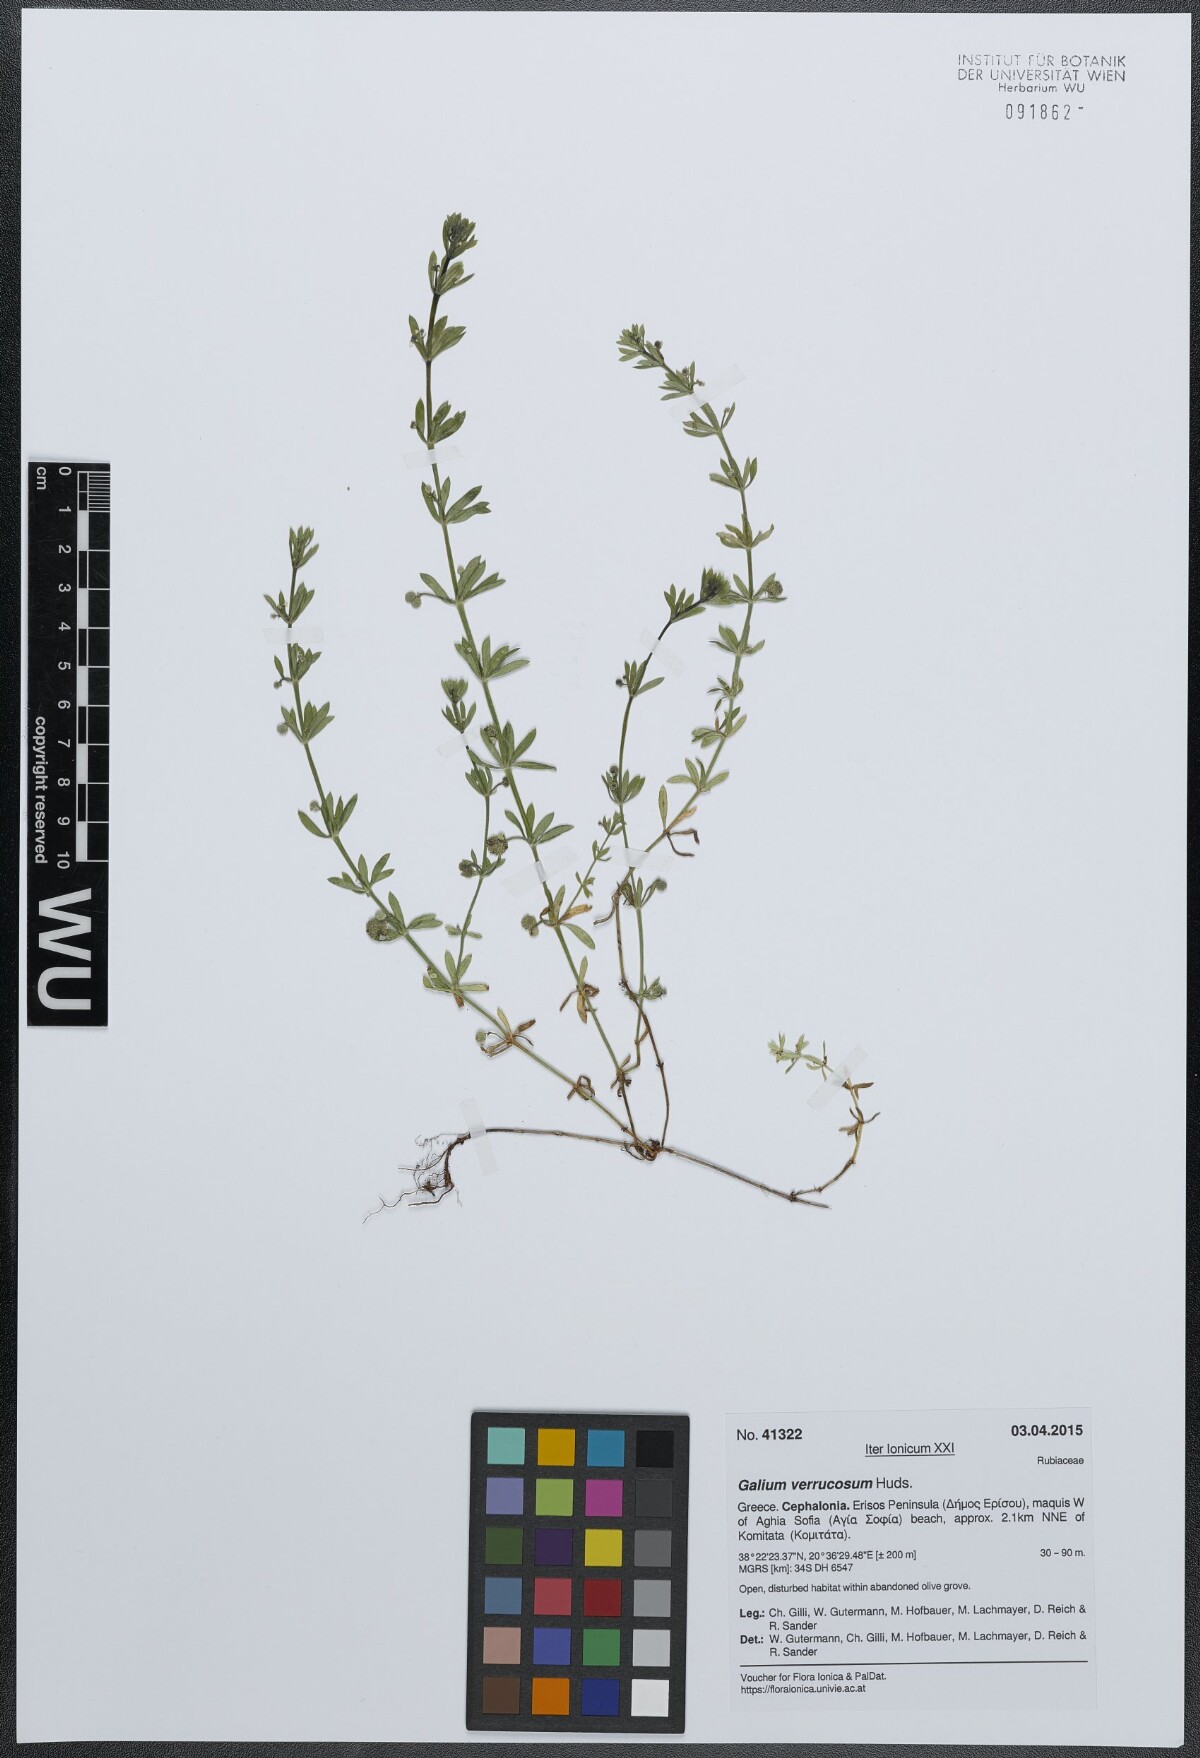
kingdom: Plantae
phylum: Tracheophyta
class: Magnoliopsida
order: Gentianales
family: Rubiaceae
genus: Galium
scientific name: Galium verrucosum
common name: Warty bedstraw
